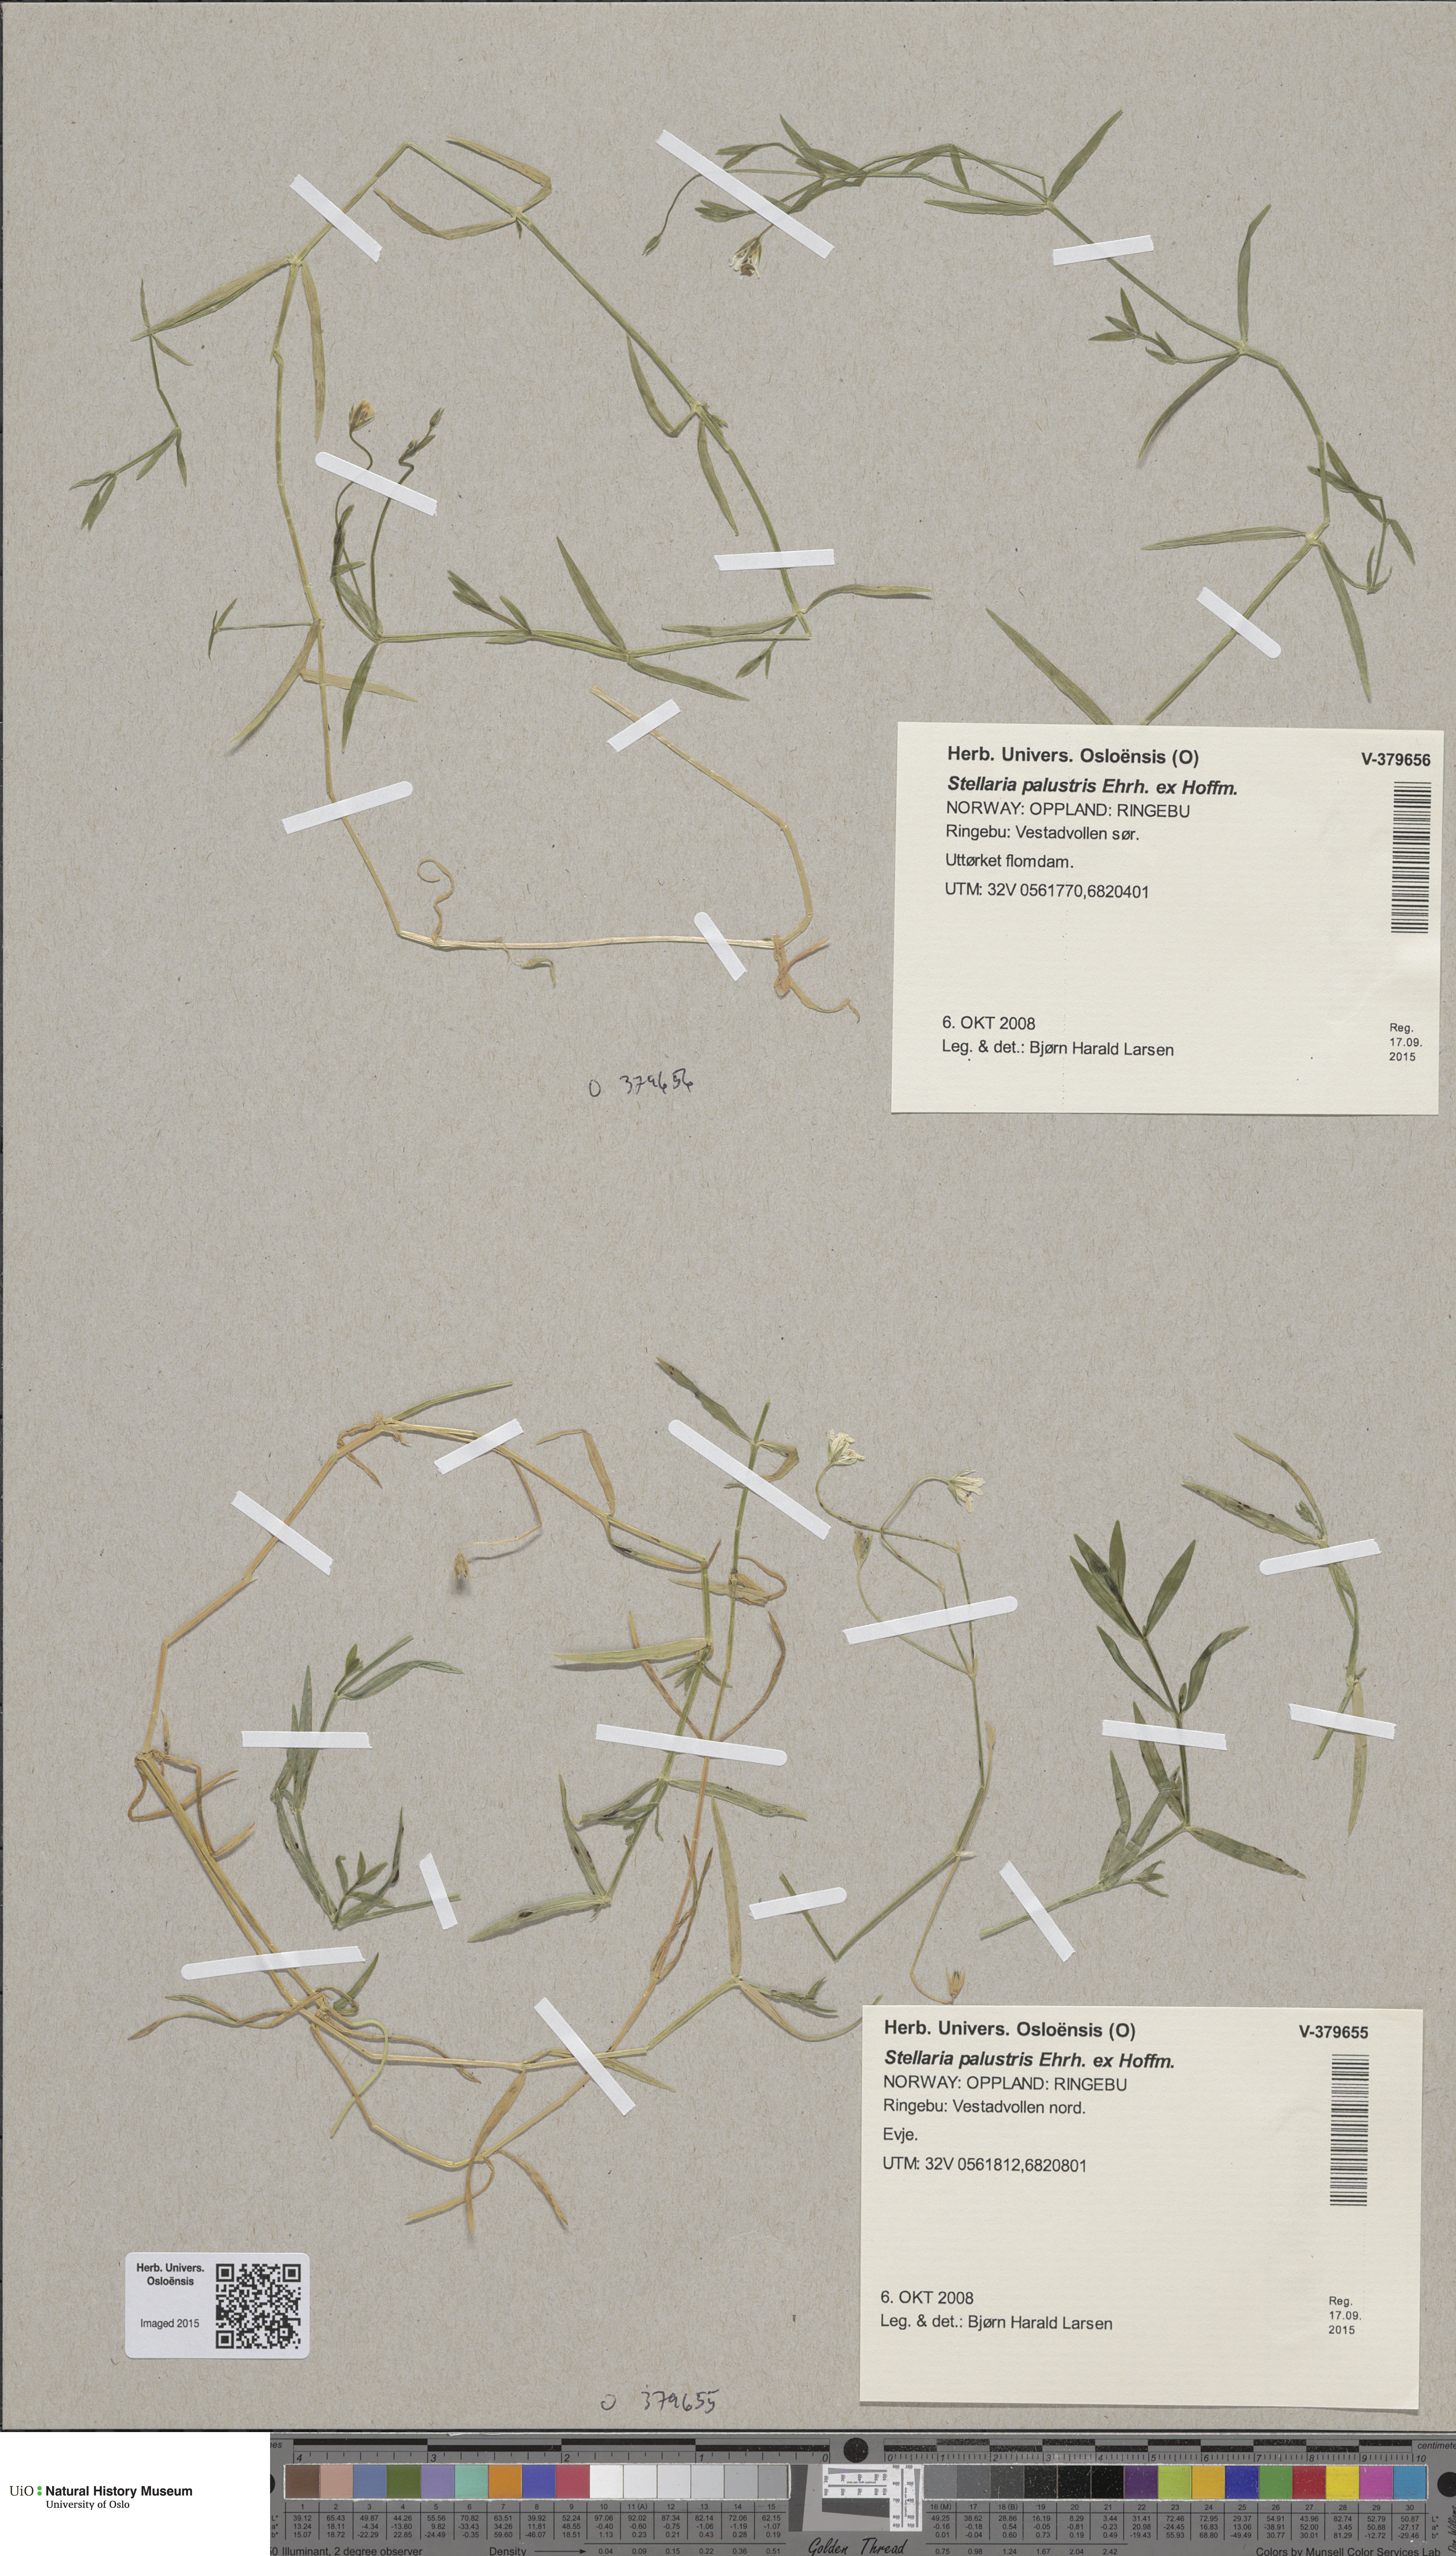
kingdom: Plantae
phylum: Tracheophyta
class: Magnoliopsida
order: Caryophyllales
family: Caryophyllaceae
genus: Stellaria
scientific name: Stellaria palustris
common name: Marsh stitchwort
